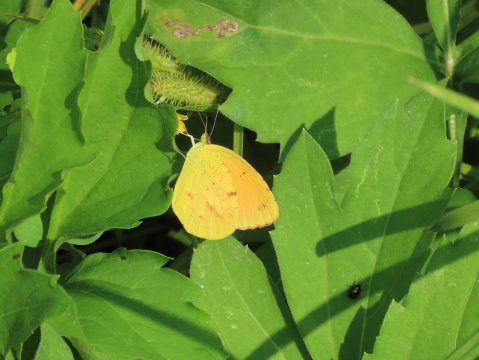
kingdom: Animalia
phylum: Arthropoda
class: Insecta
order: Lepidoptera
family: Pieridae
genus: Abaeis
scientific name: Abaeis nicippe
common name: Sleepy Orange
